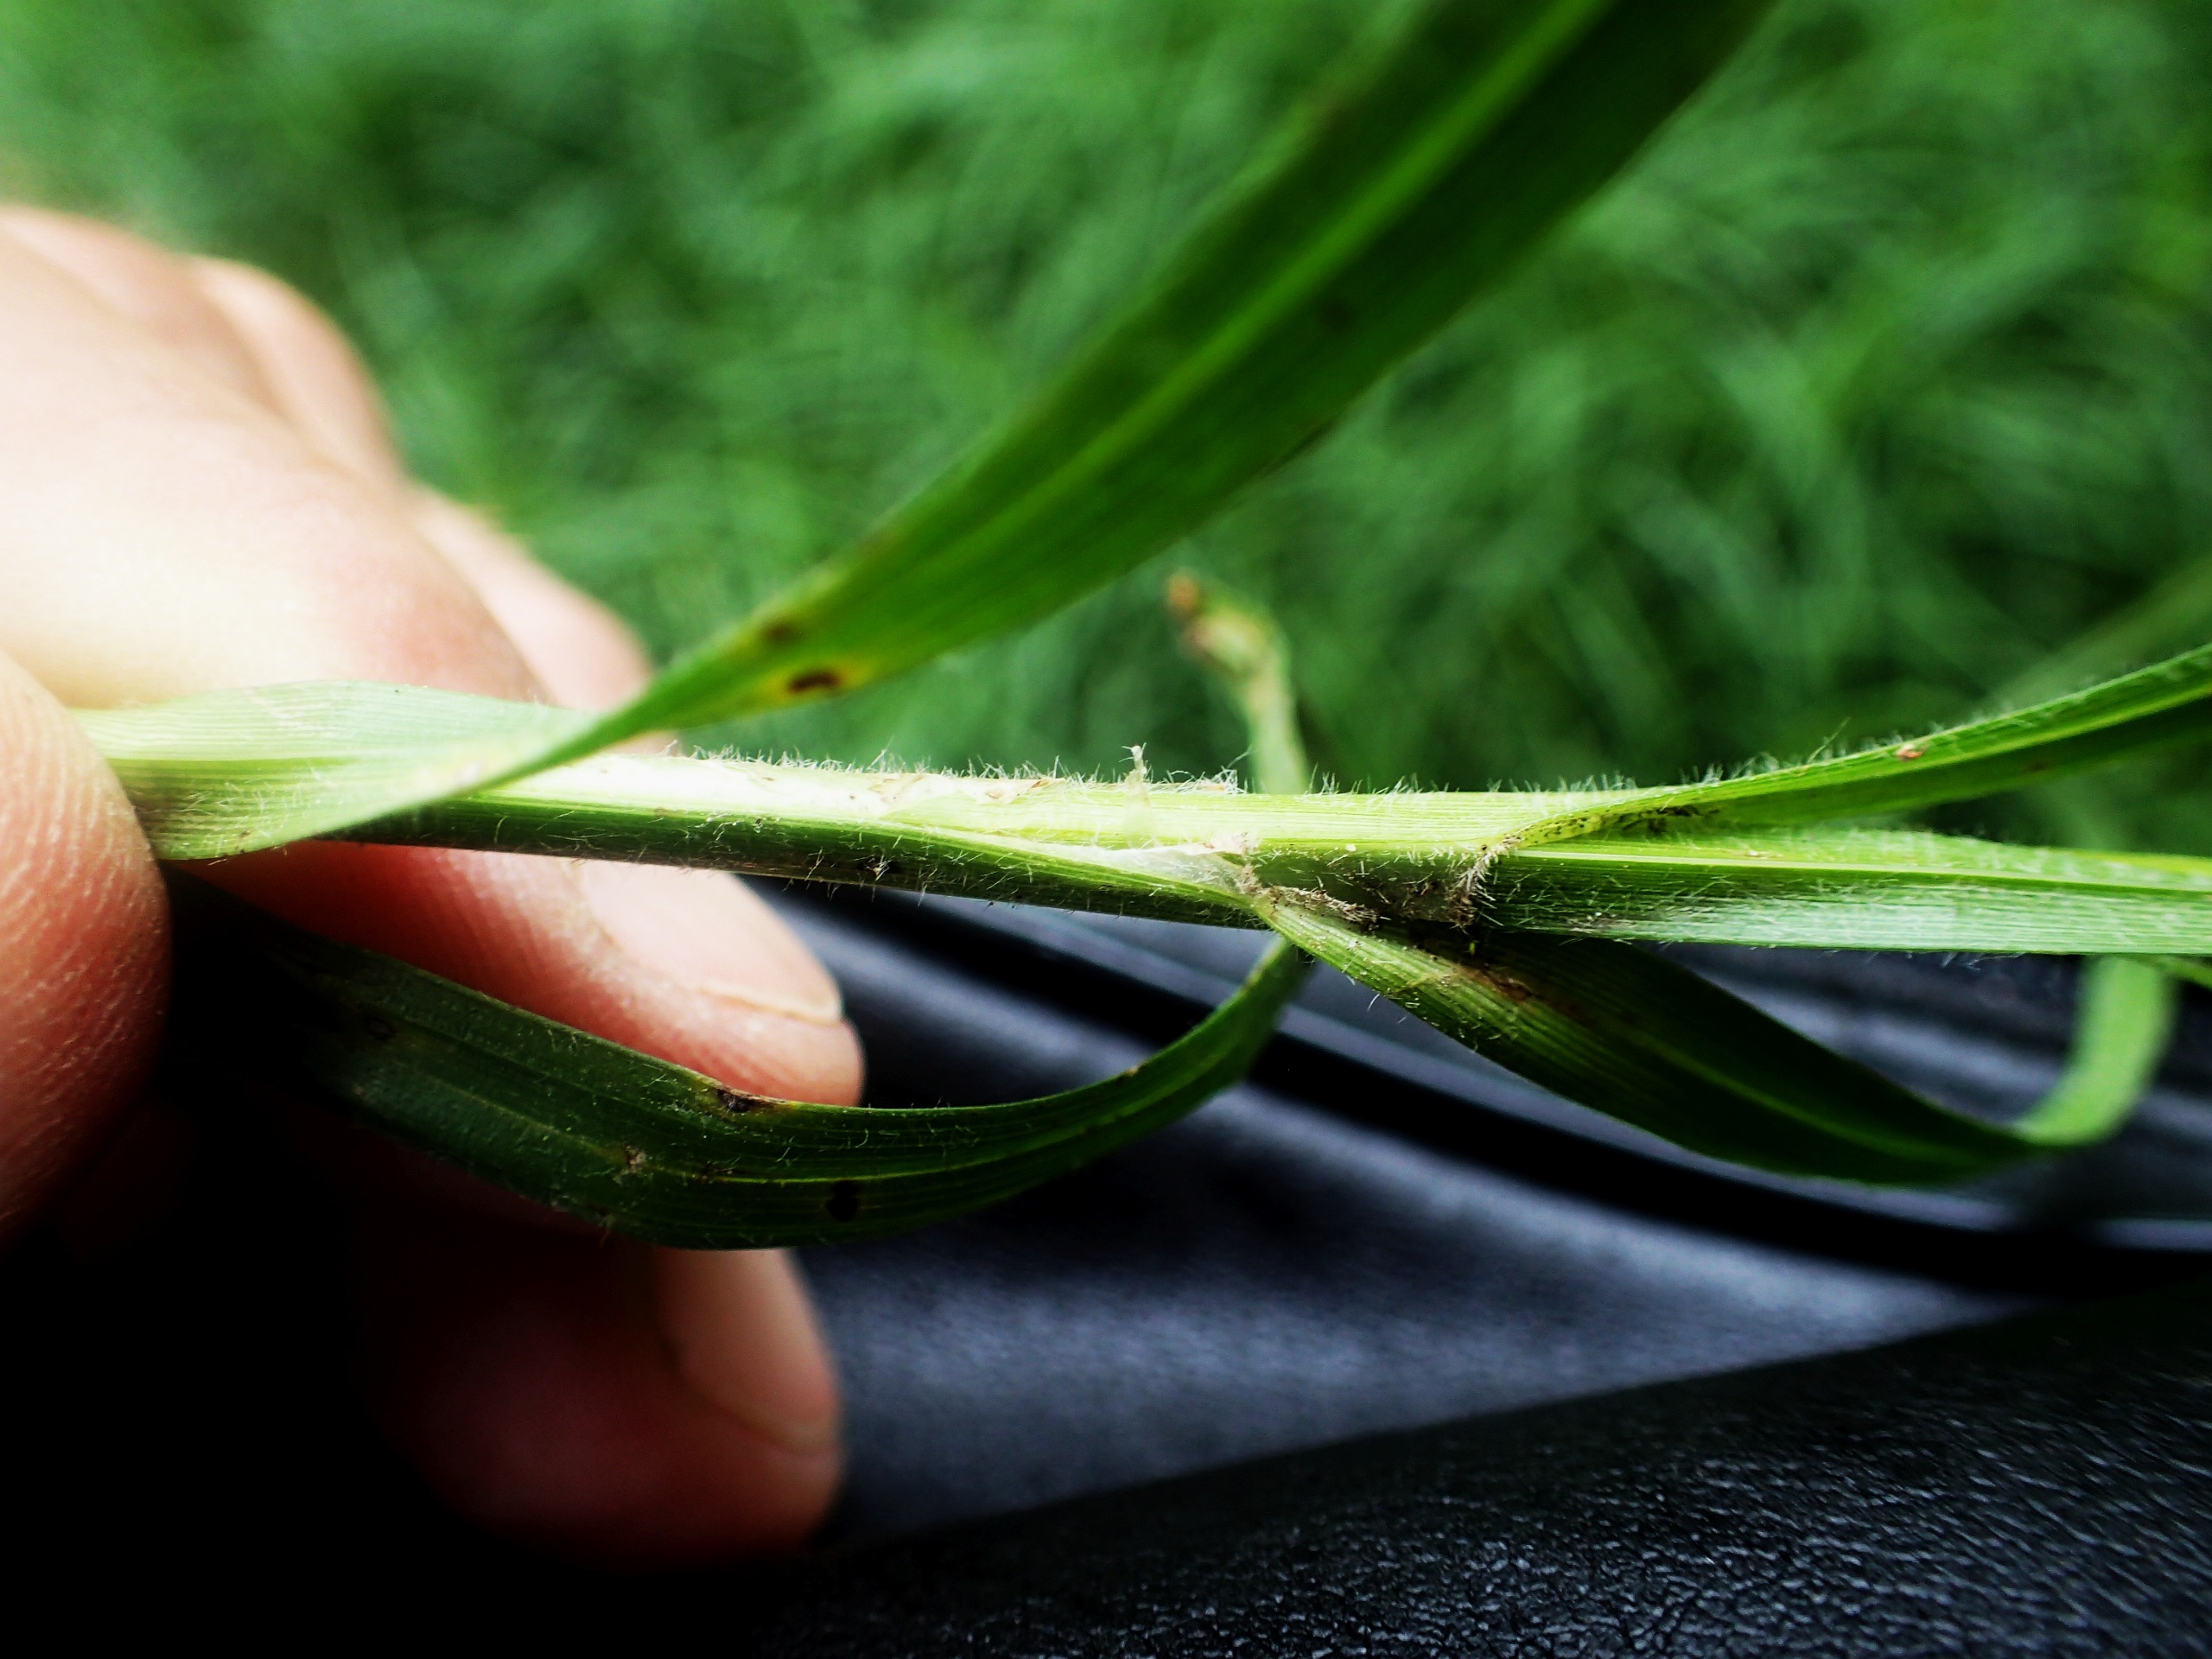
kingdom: Plantae
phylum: Tracheophyta
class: Liliopsida
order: Poales
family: Cyperaceae
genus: Carex
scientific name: Carex hirta
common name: Håret star
